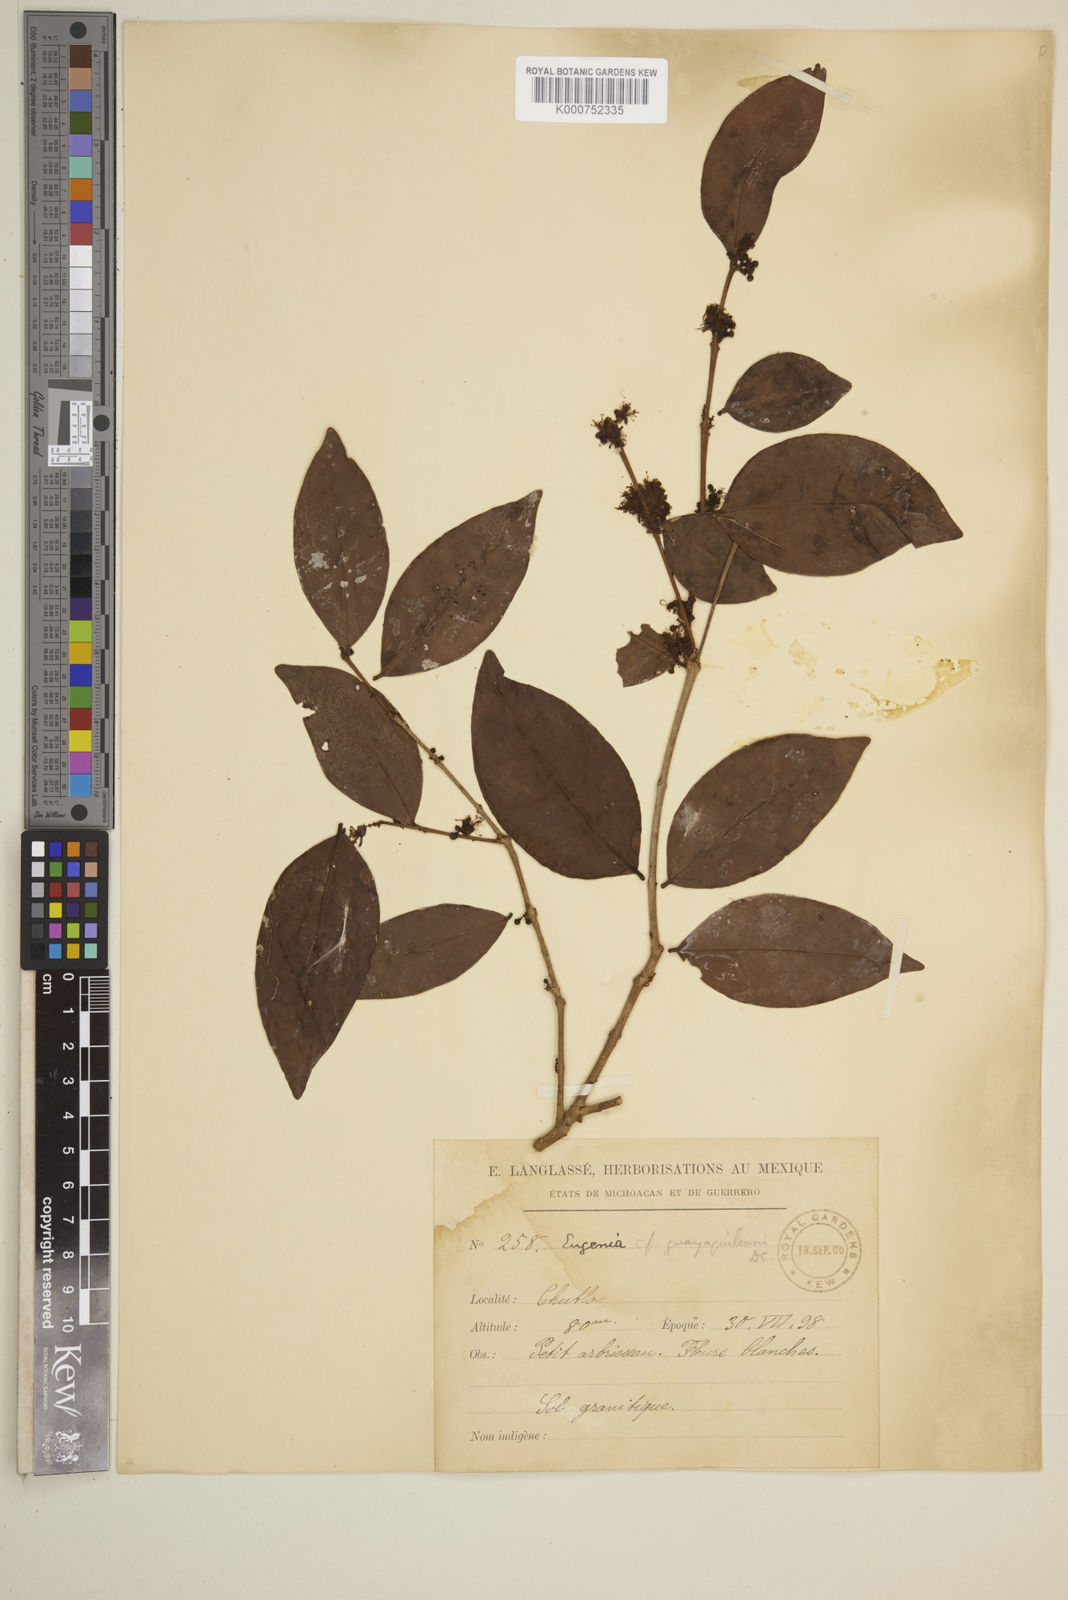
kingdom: Plantae
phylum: Tracheophyta
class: Magnoliopsida
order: Myrtales
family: Myrtaceae
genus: Eugenia
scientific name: Eugenia guayaquilensis
